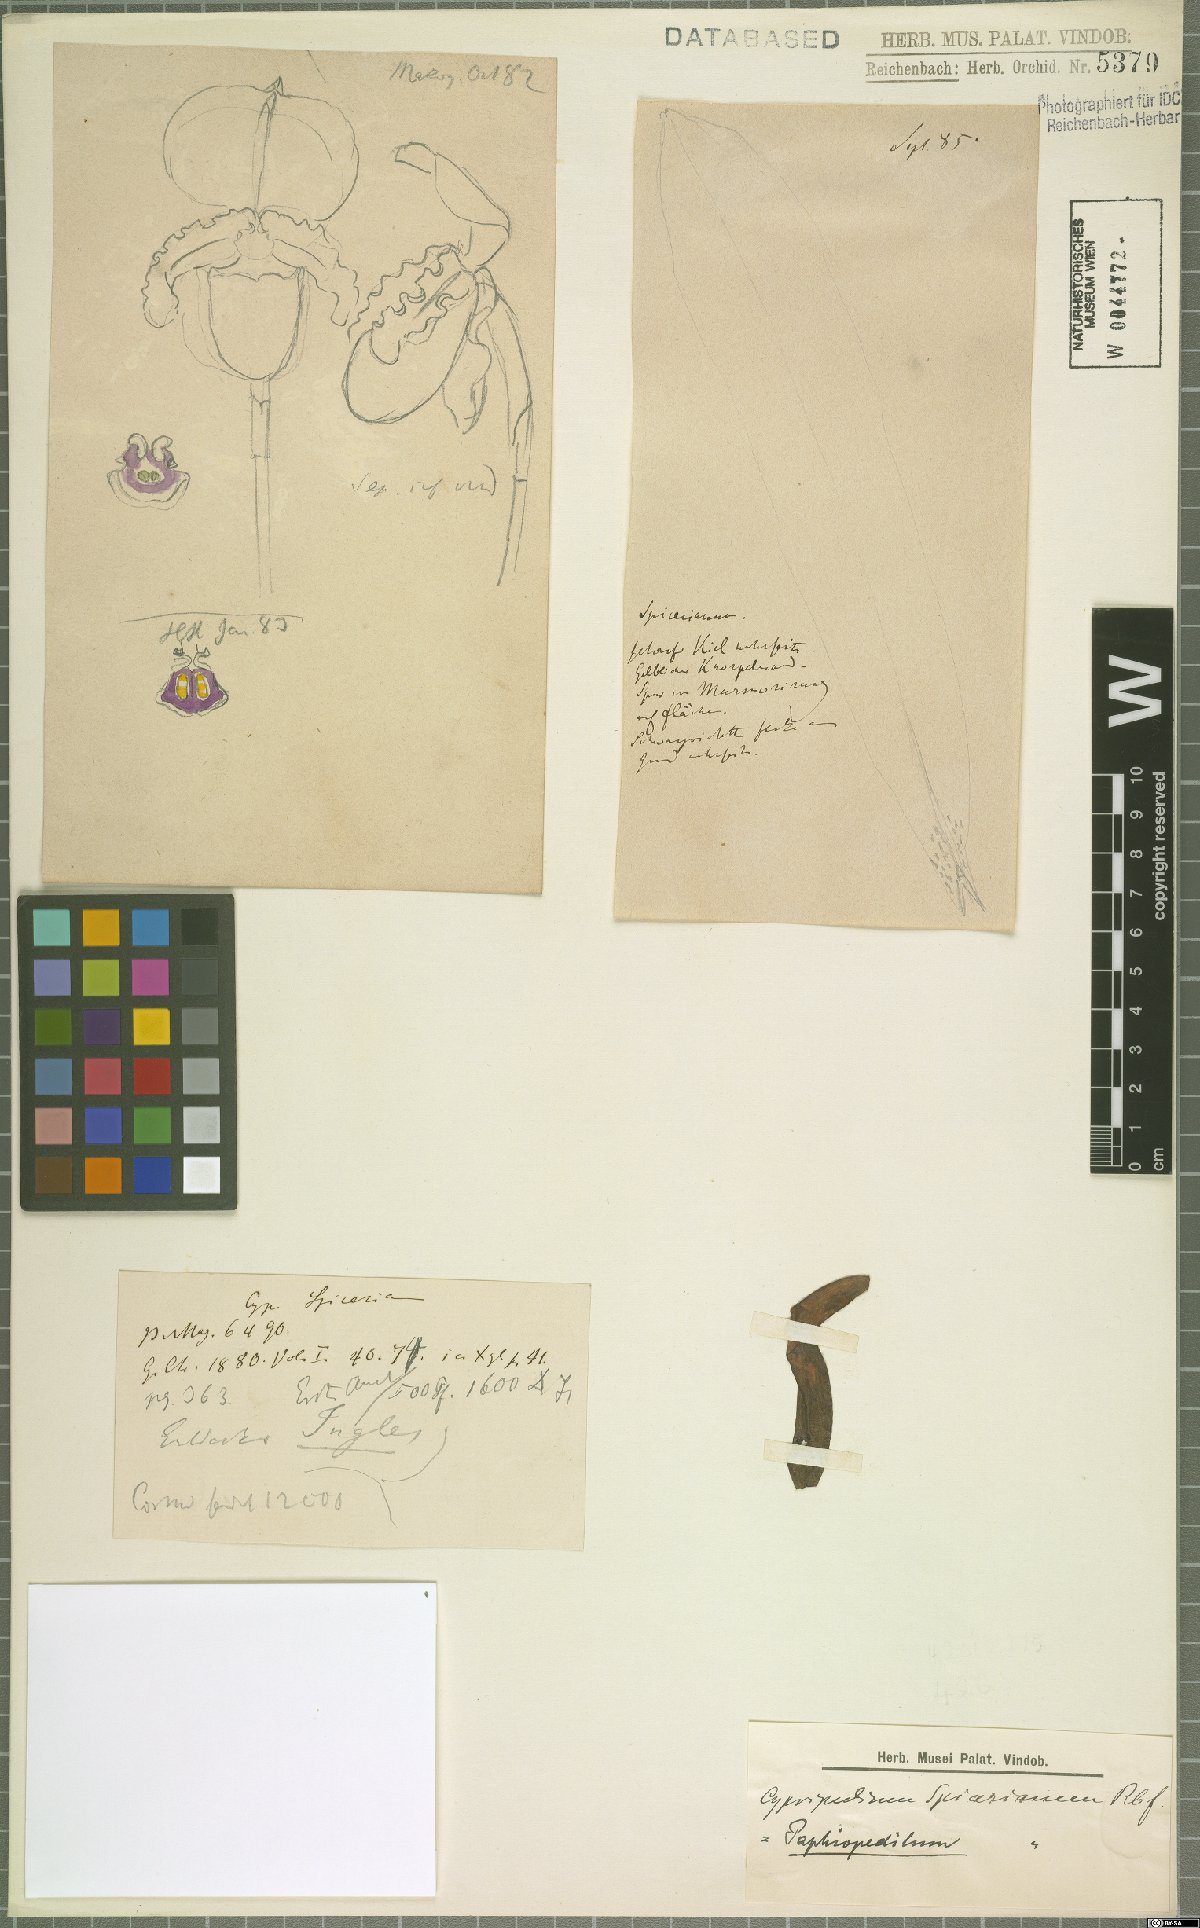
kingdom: Plantae
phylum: Tracheophyta
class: Liliopsida
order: Asparagales
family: Orchidaceae
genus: Paphiopedilum
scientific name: Paphiopedilum spicerianum
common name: Spicer’s paphiopedilum
